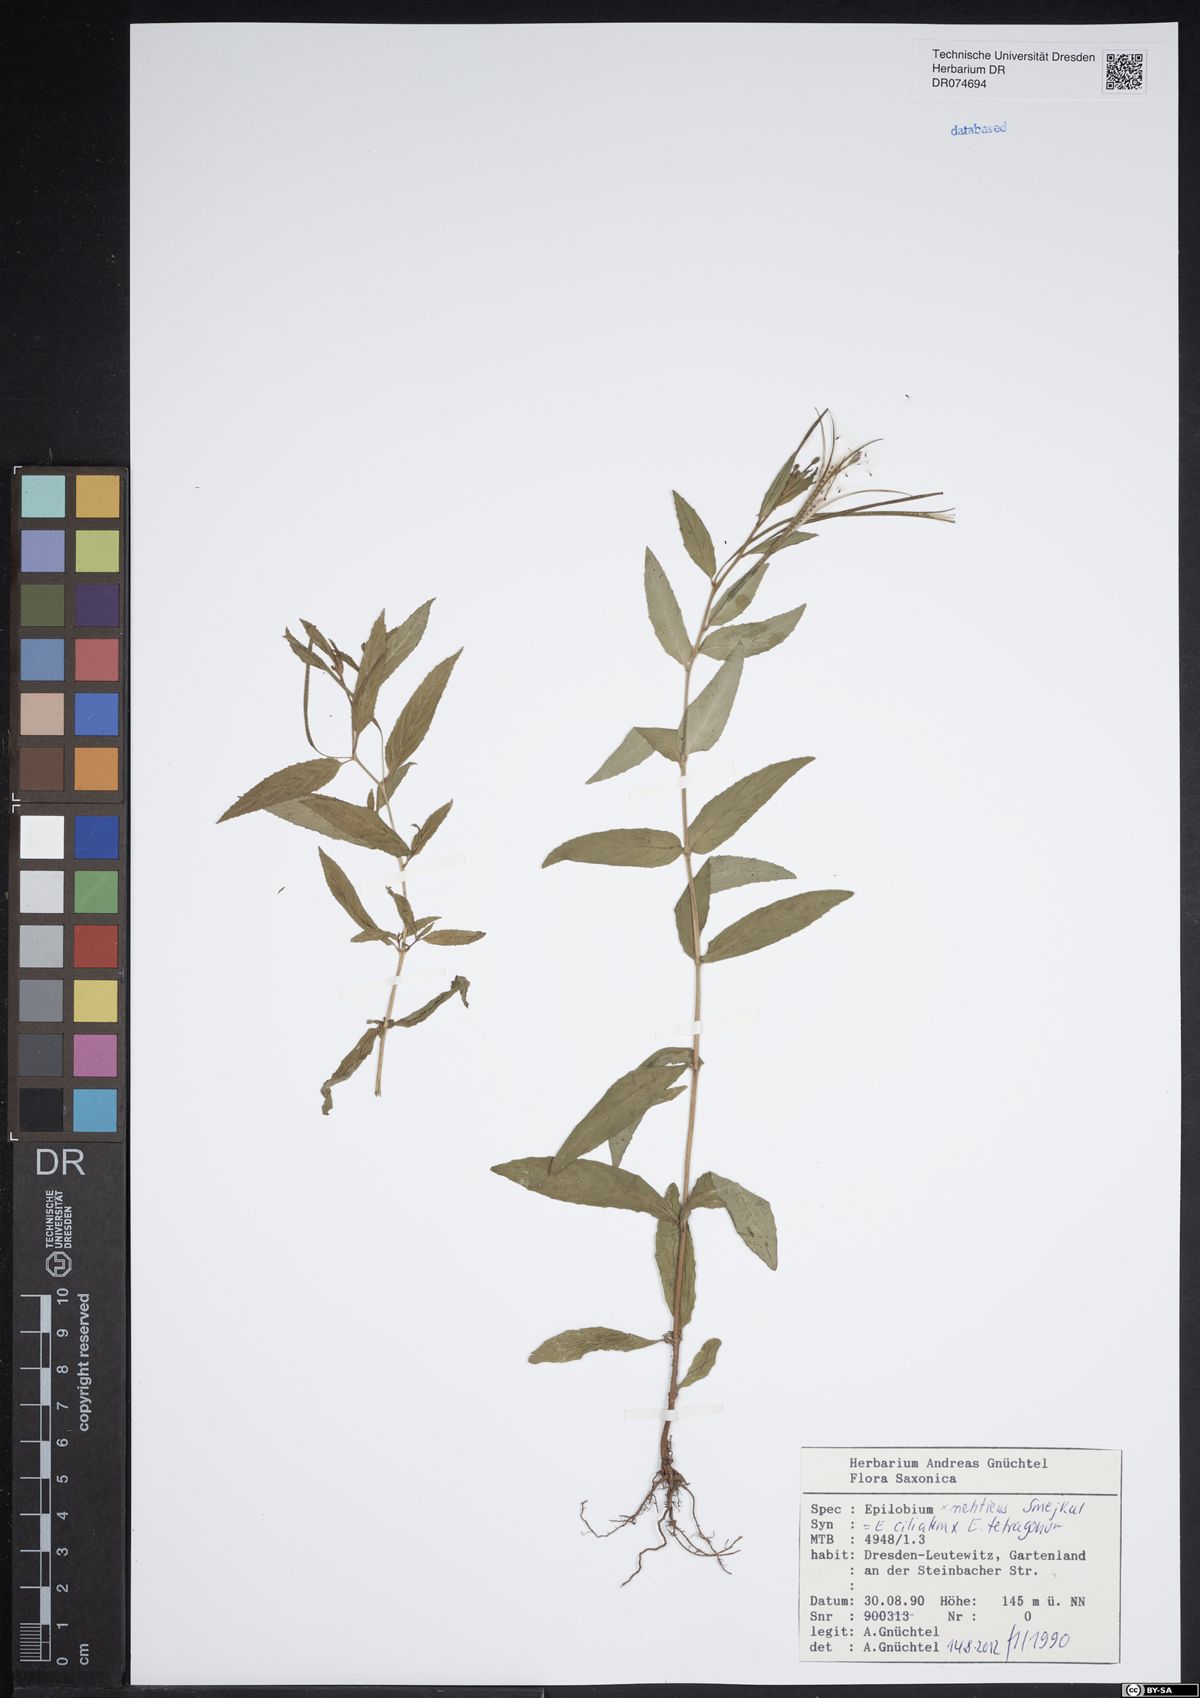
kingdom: Plantae
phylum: Tracheophyta
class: Magnoliopsida
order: Myrtales
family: Onagraceae
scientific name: Onagraceae
